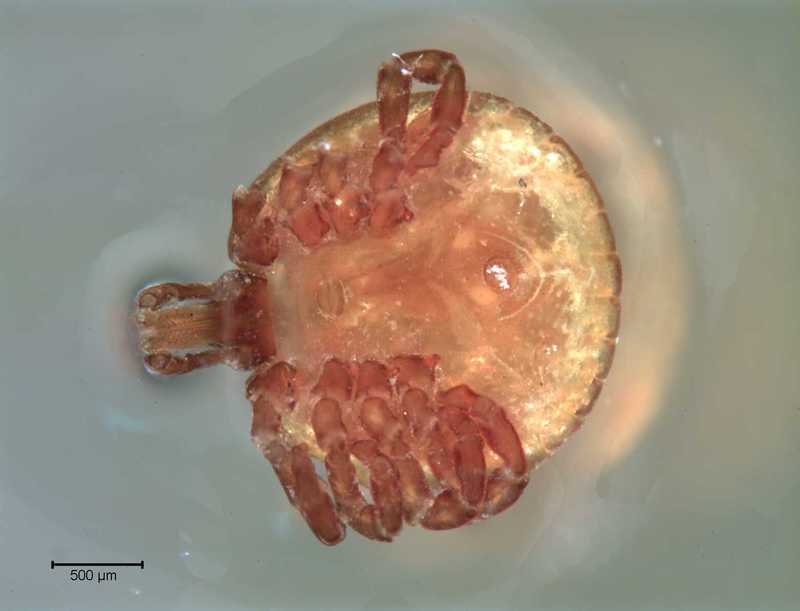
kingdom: Animalia
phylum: Arthropoda
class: Arachnida
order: Ixodida
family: Ixodidae
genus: Amblyomma
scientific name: Amblyomma gervaisi
